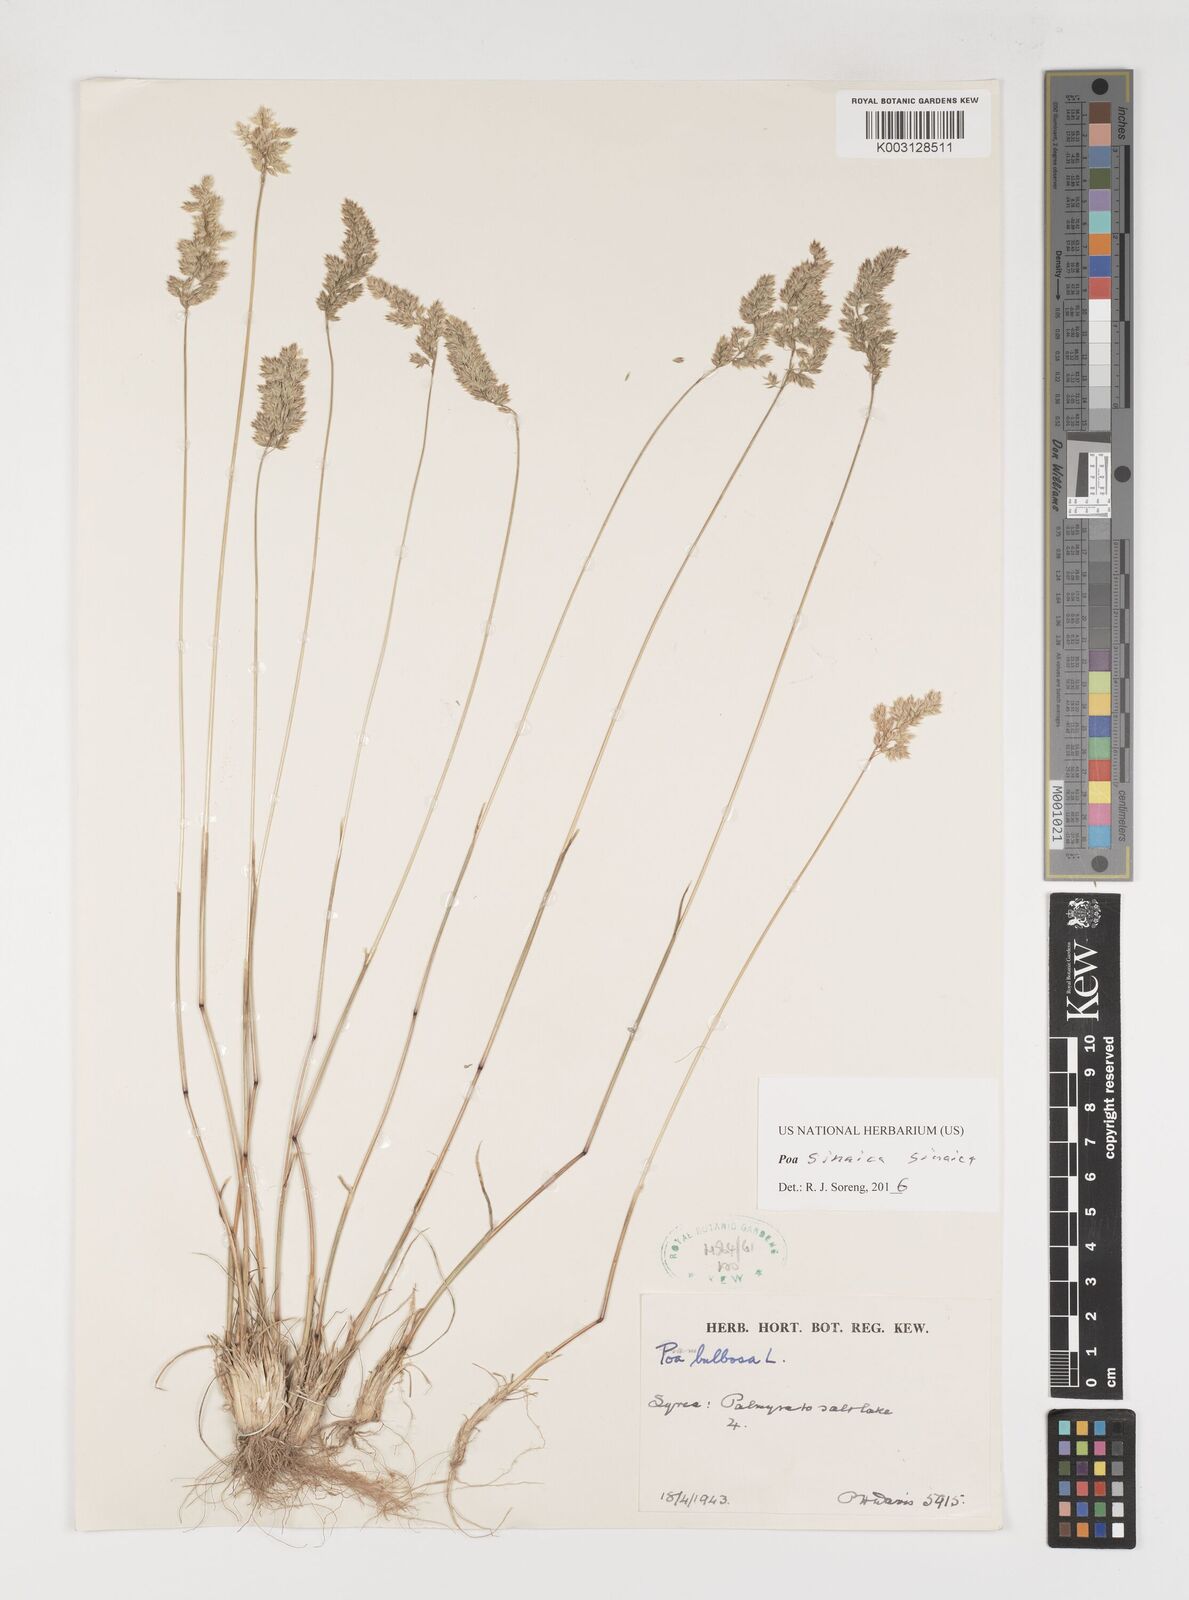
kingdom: Plantae
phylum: Tracheophyta
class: Liliopsida
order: Poales
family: Poaceae
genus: Poa
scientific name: Poa sinaica
